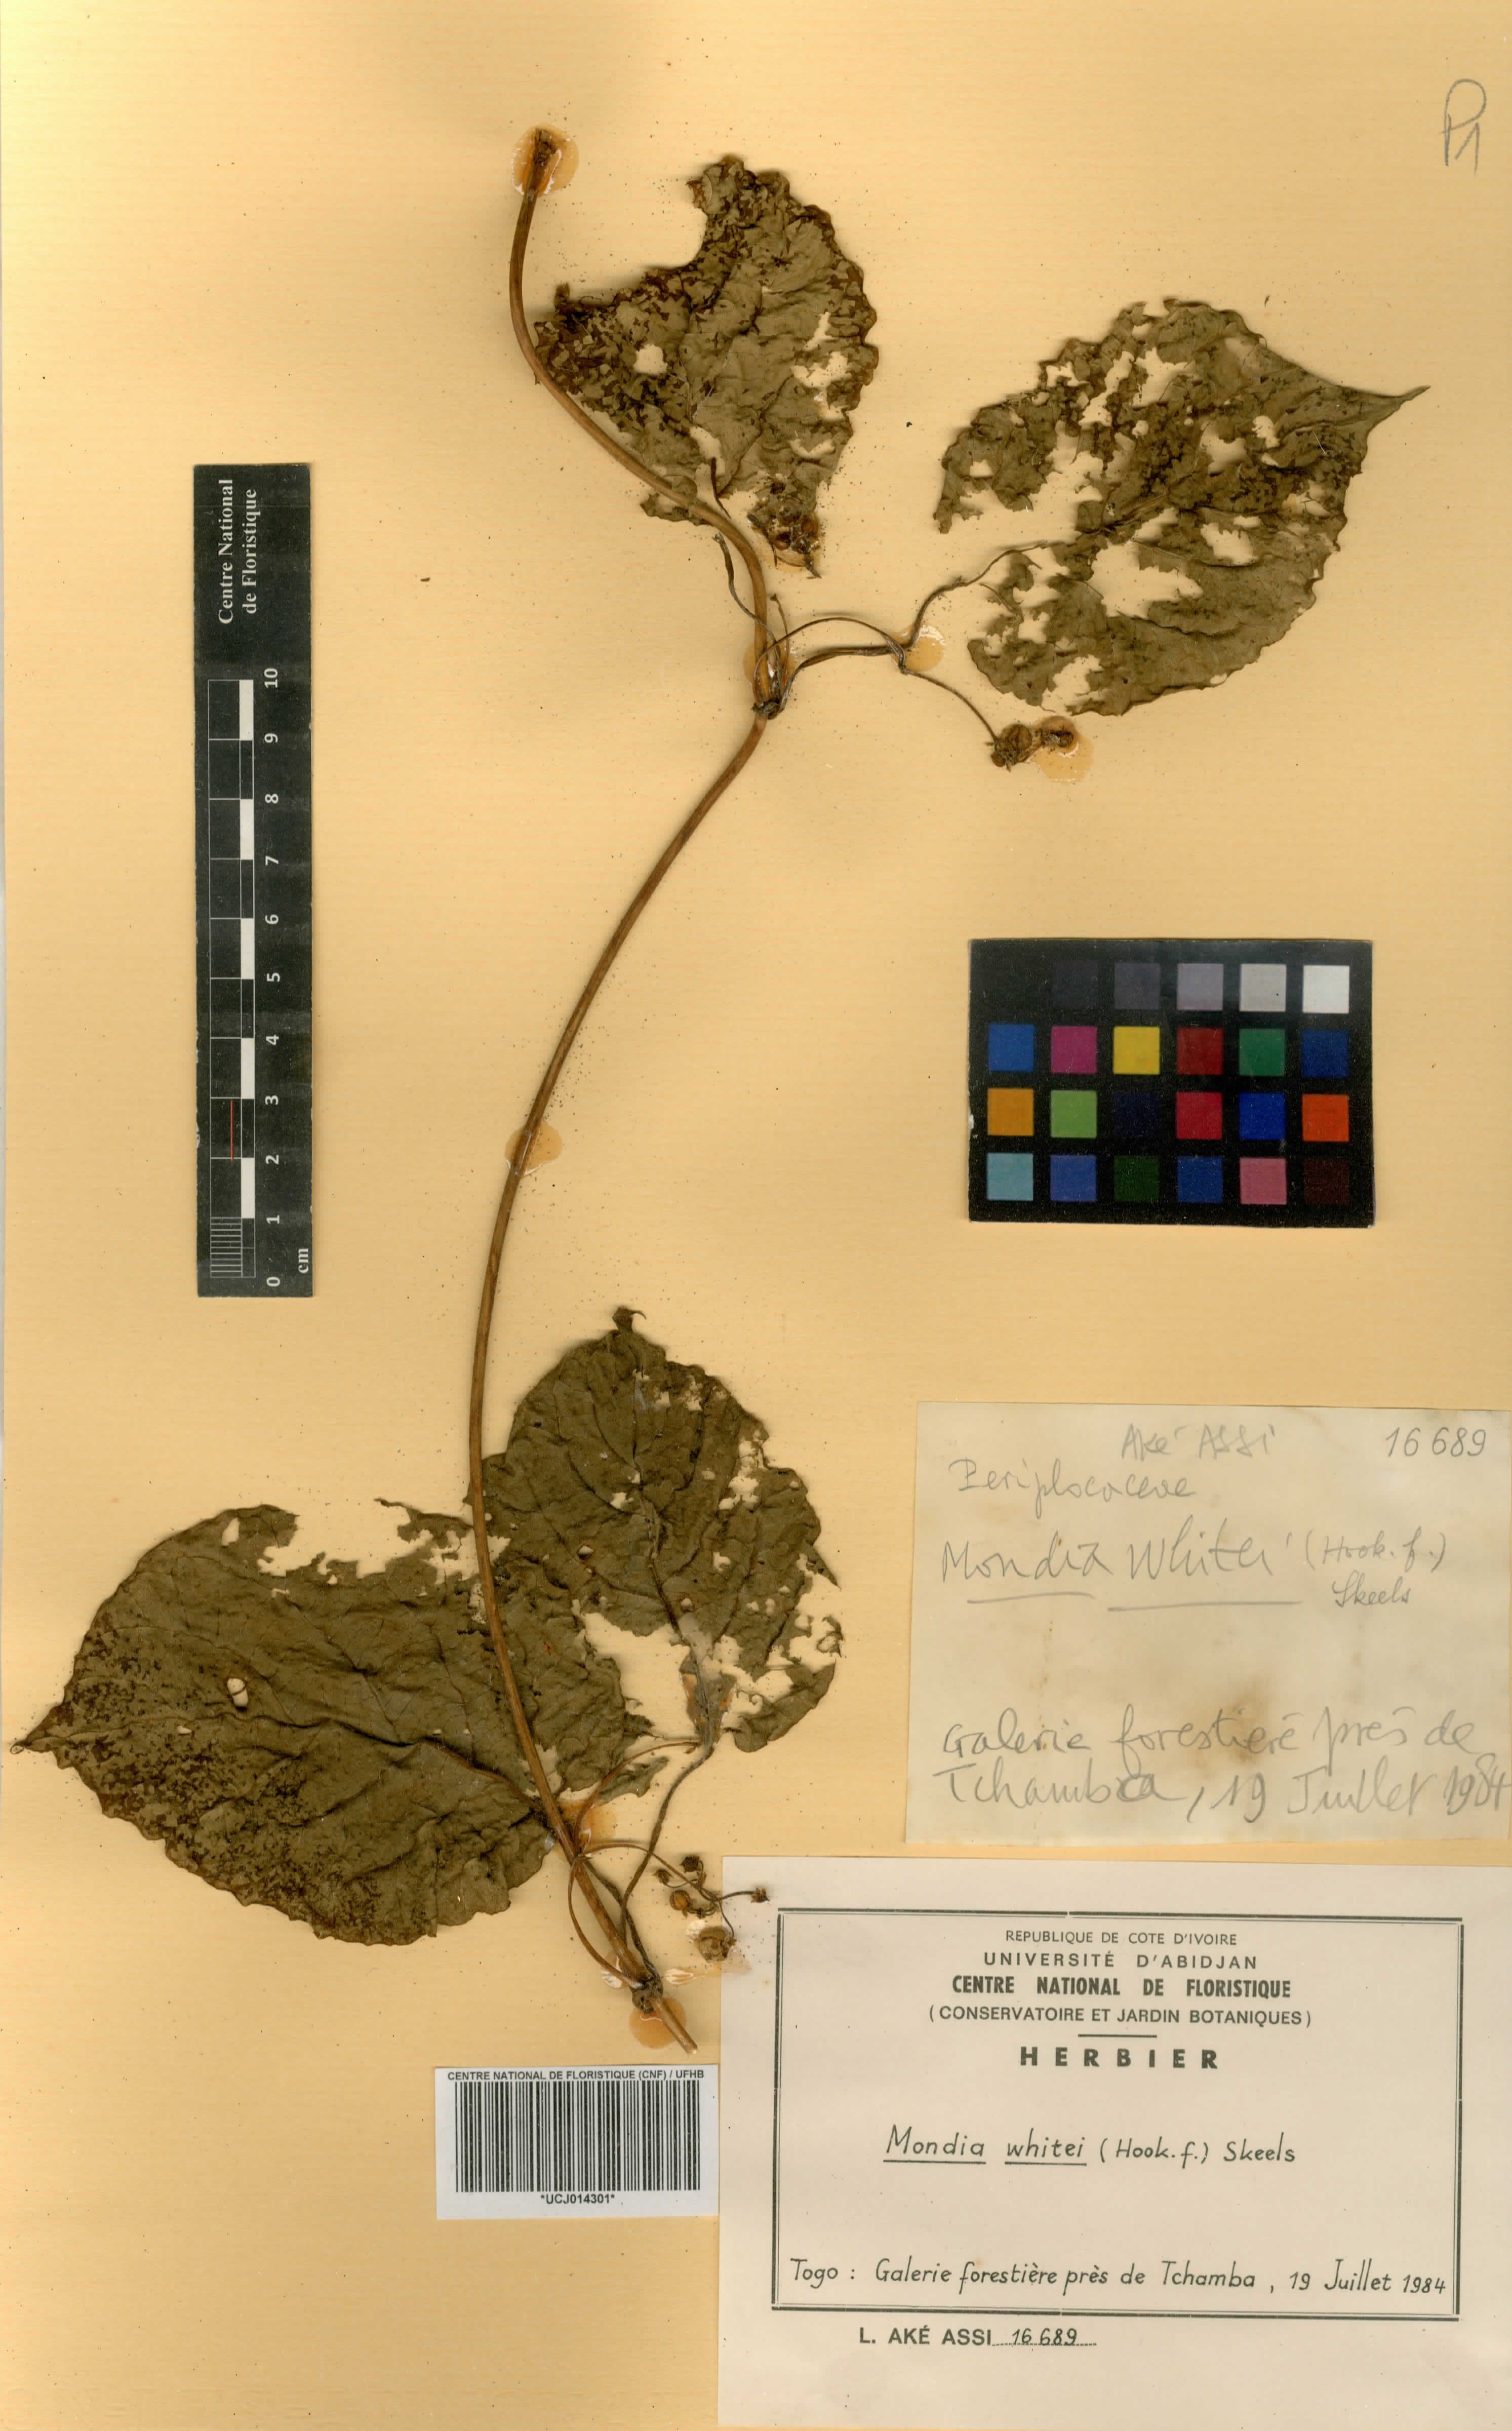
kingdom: Plantae
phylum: Tracheophyta
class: Magnoliopsida
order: Gentianales
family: Apocynaceae
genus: Mondia
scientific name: Mondia whitei
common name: Mondia
